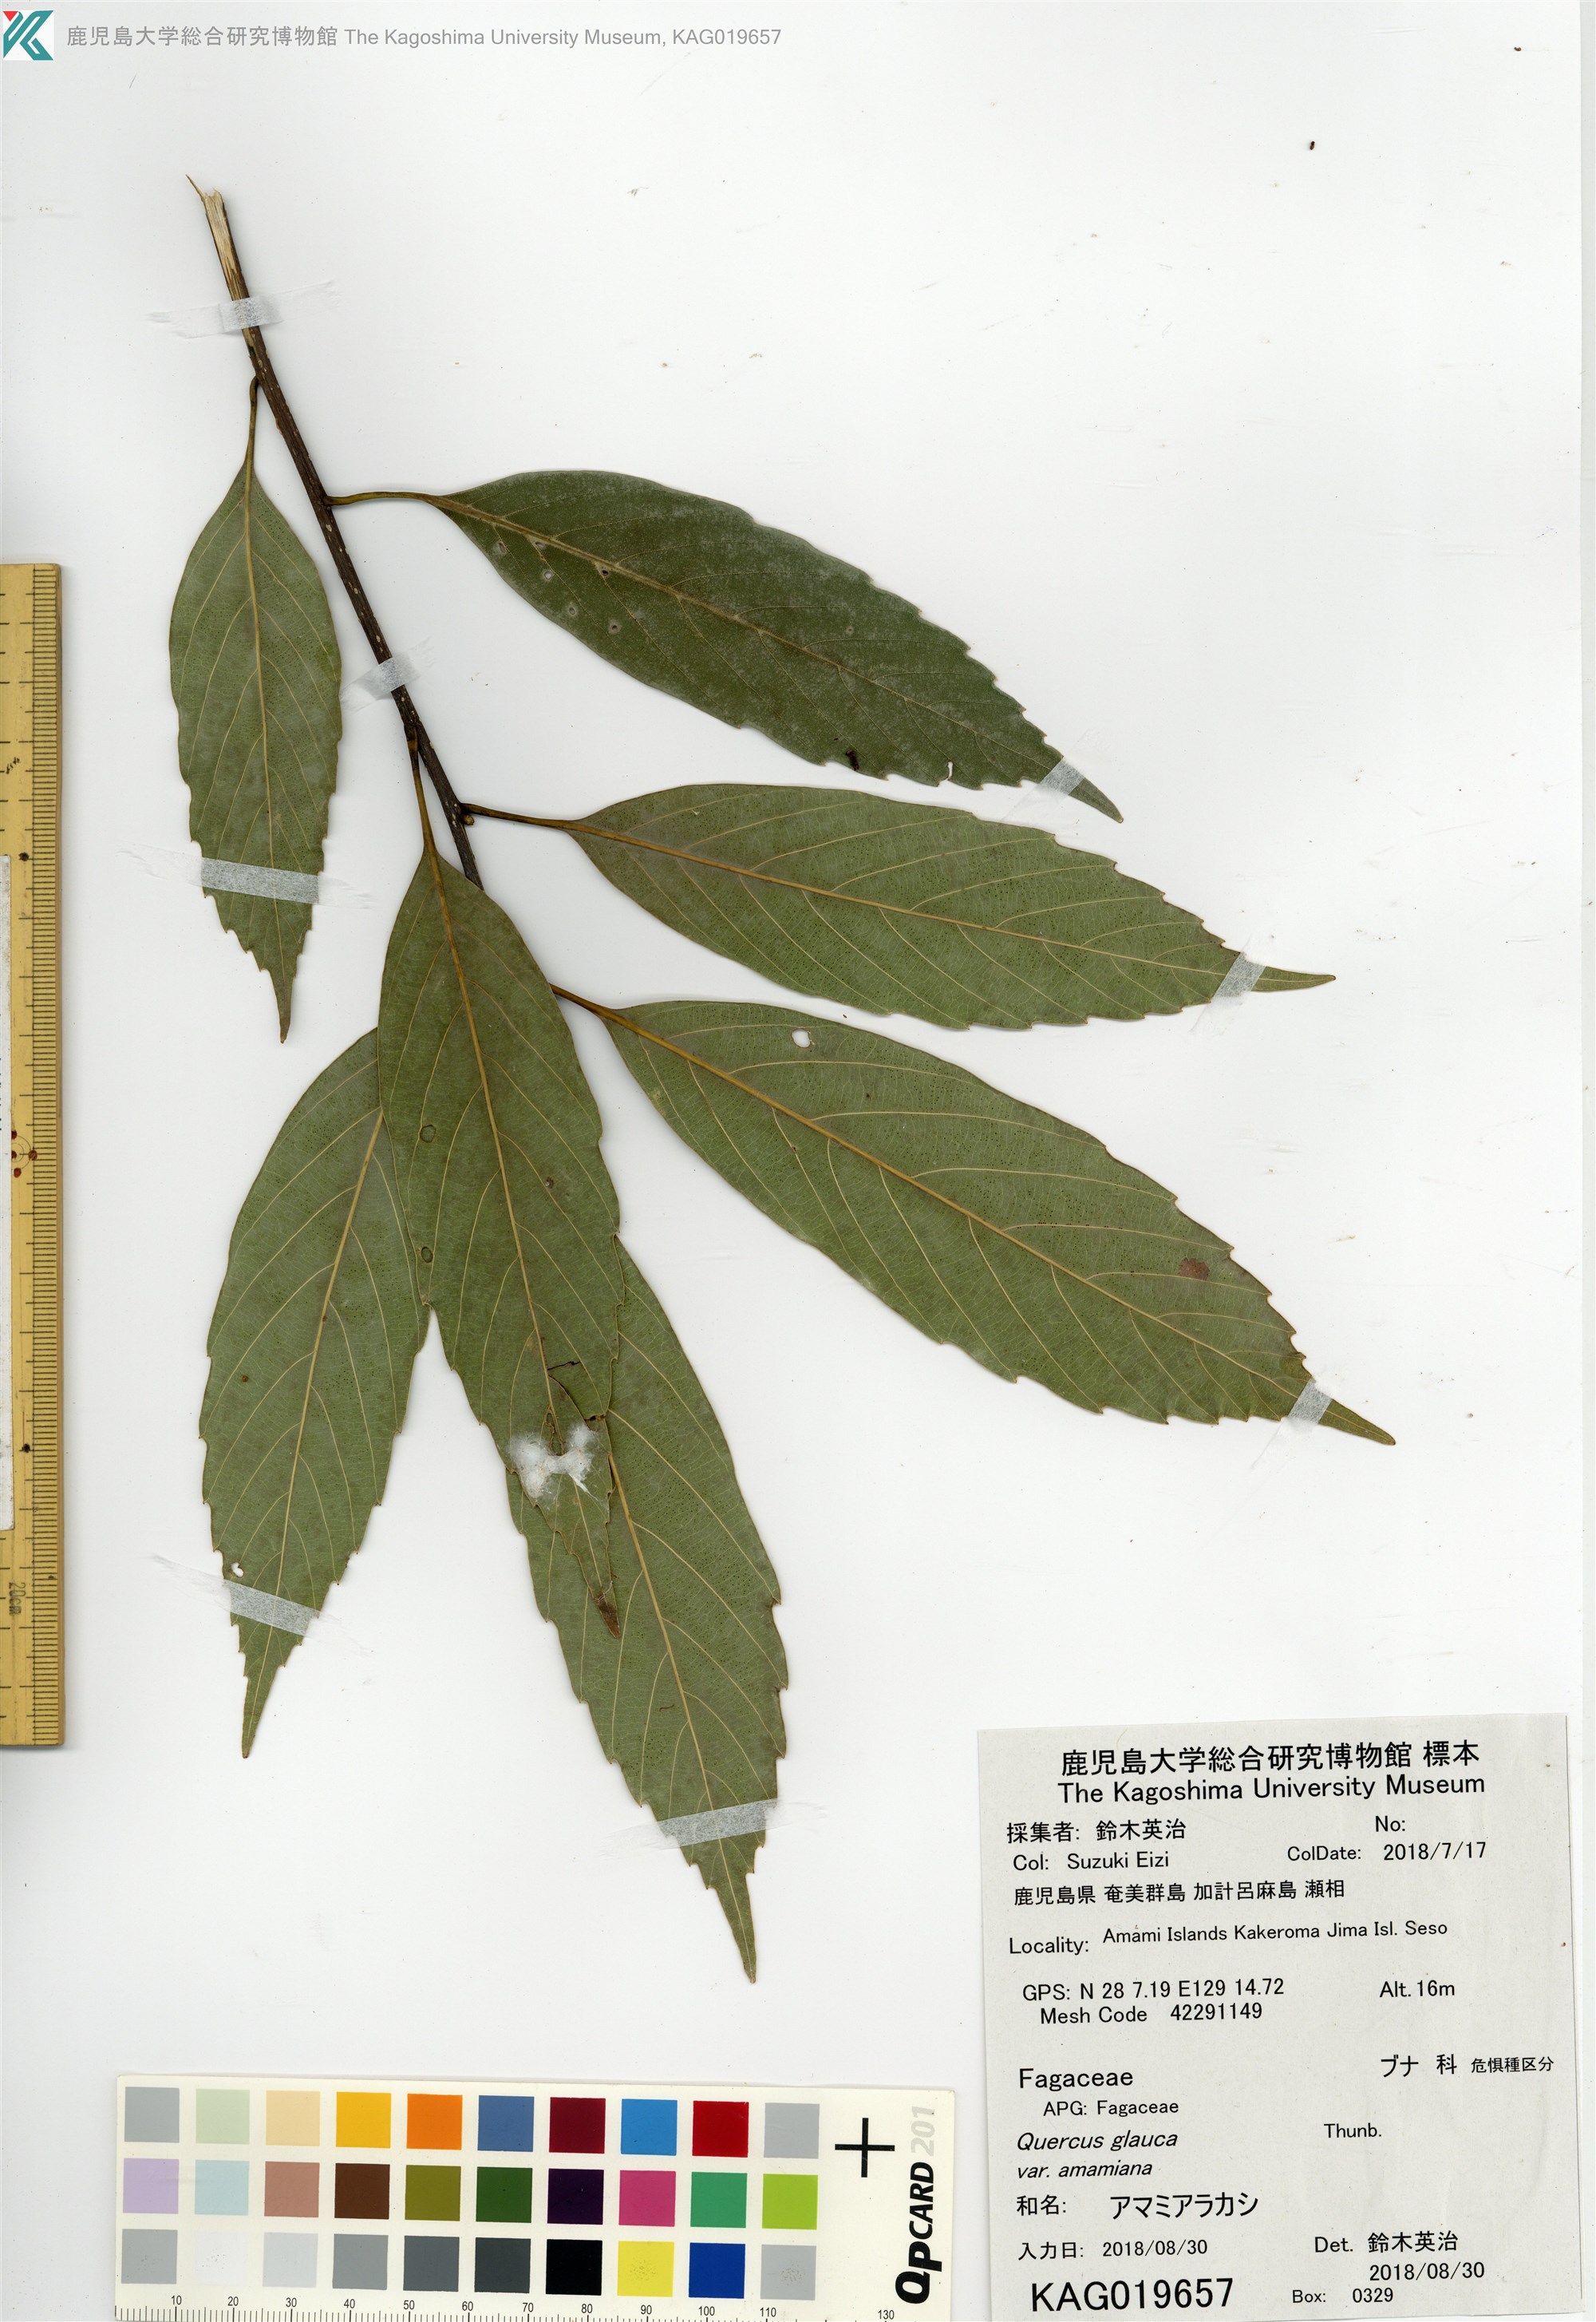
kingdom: Plantae
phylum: Tracheophyta
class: Magnoliopsida
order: Fagales
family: Fagaceae
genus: Quercus
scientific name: Quercus glauca
